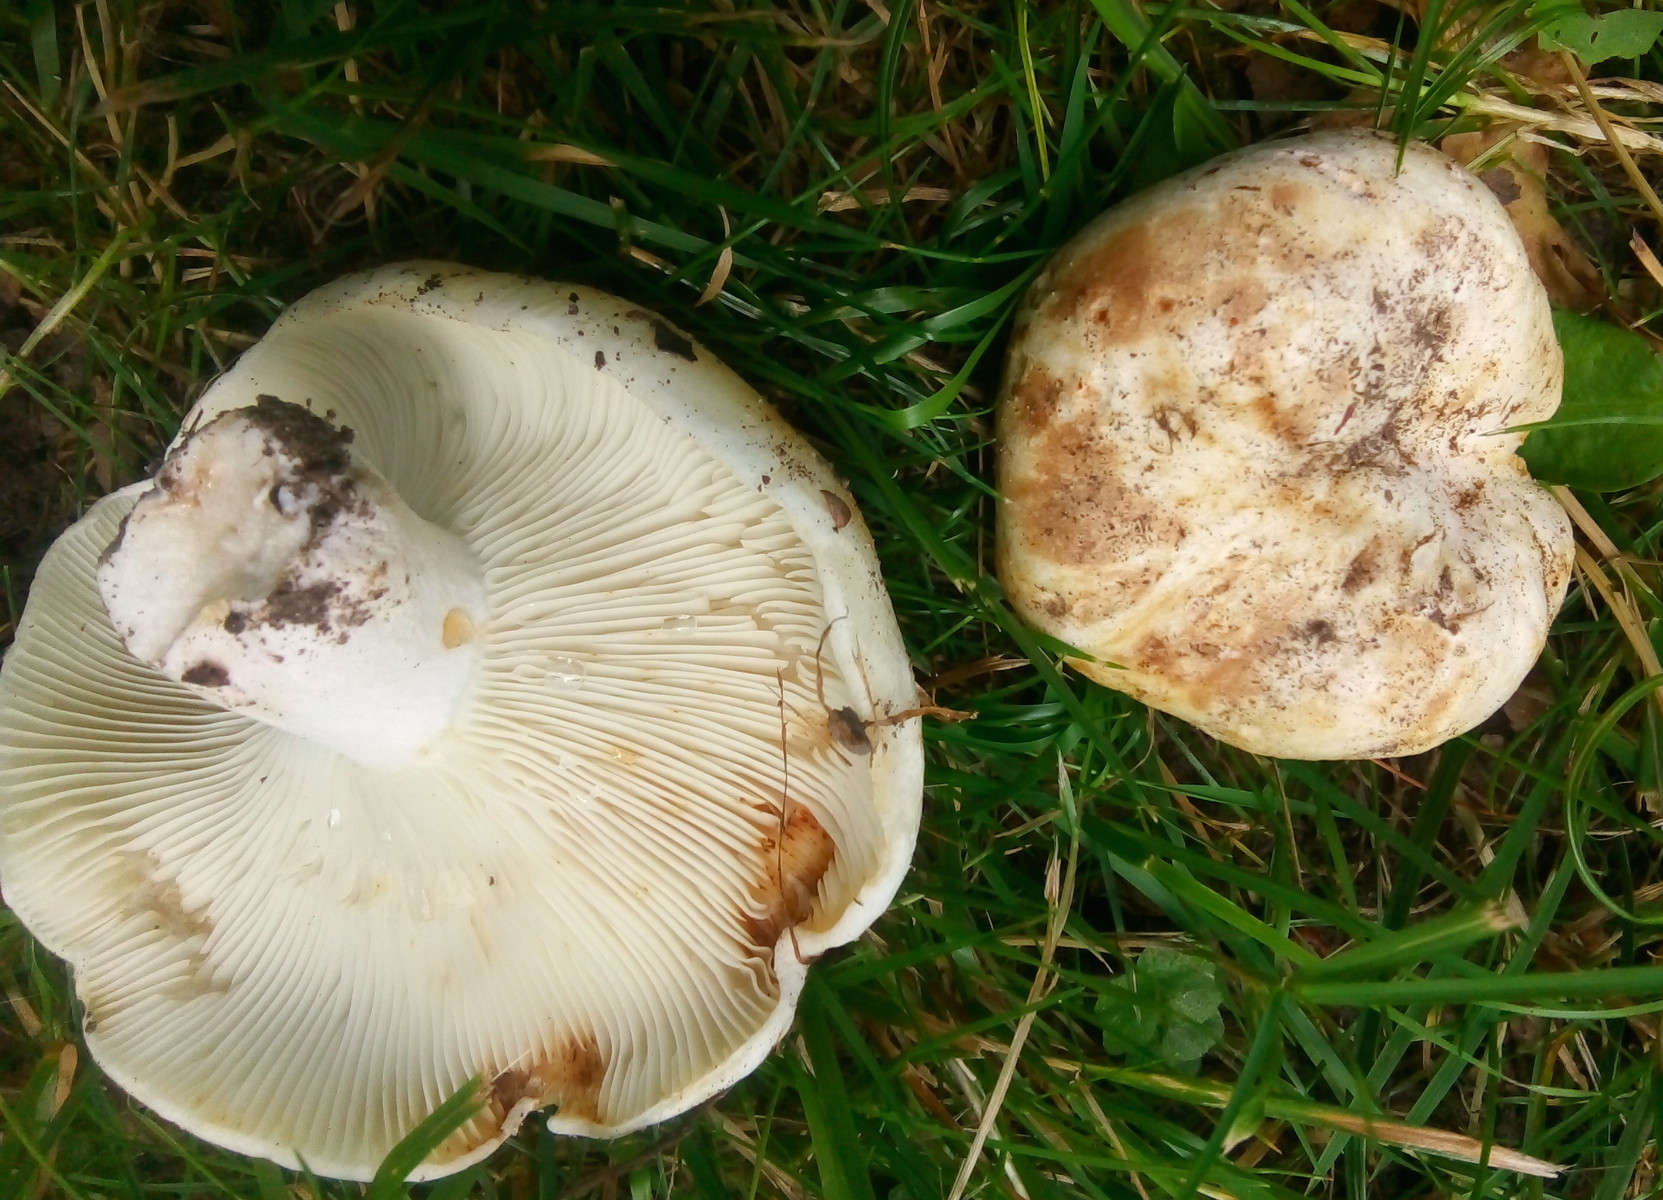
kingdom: Fungi
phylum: Basidiomycota
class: Agaricomycetes
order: Russulales
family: Russulaceae
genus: Russula
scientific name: Russula delica
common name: almindelig tragt-skørhat
